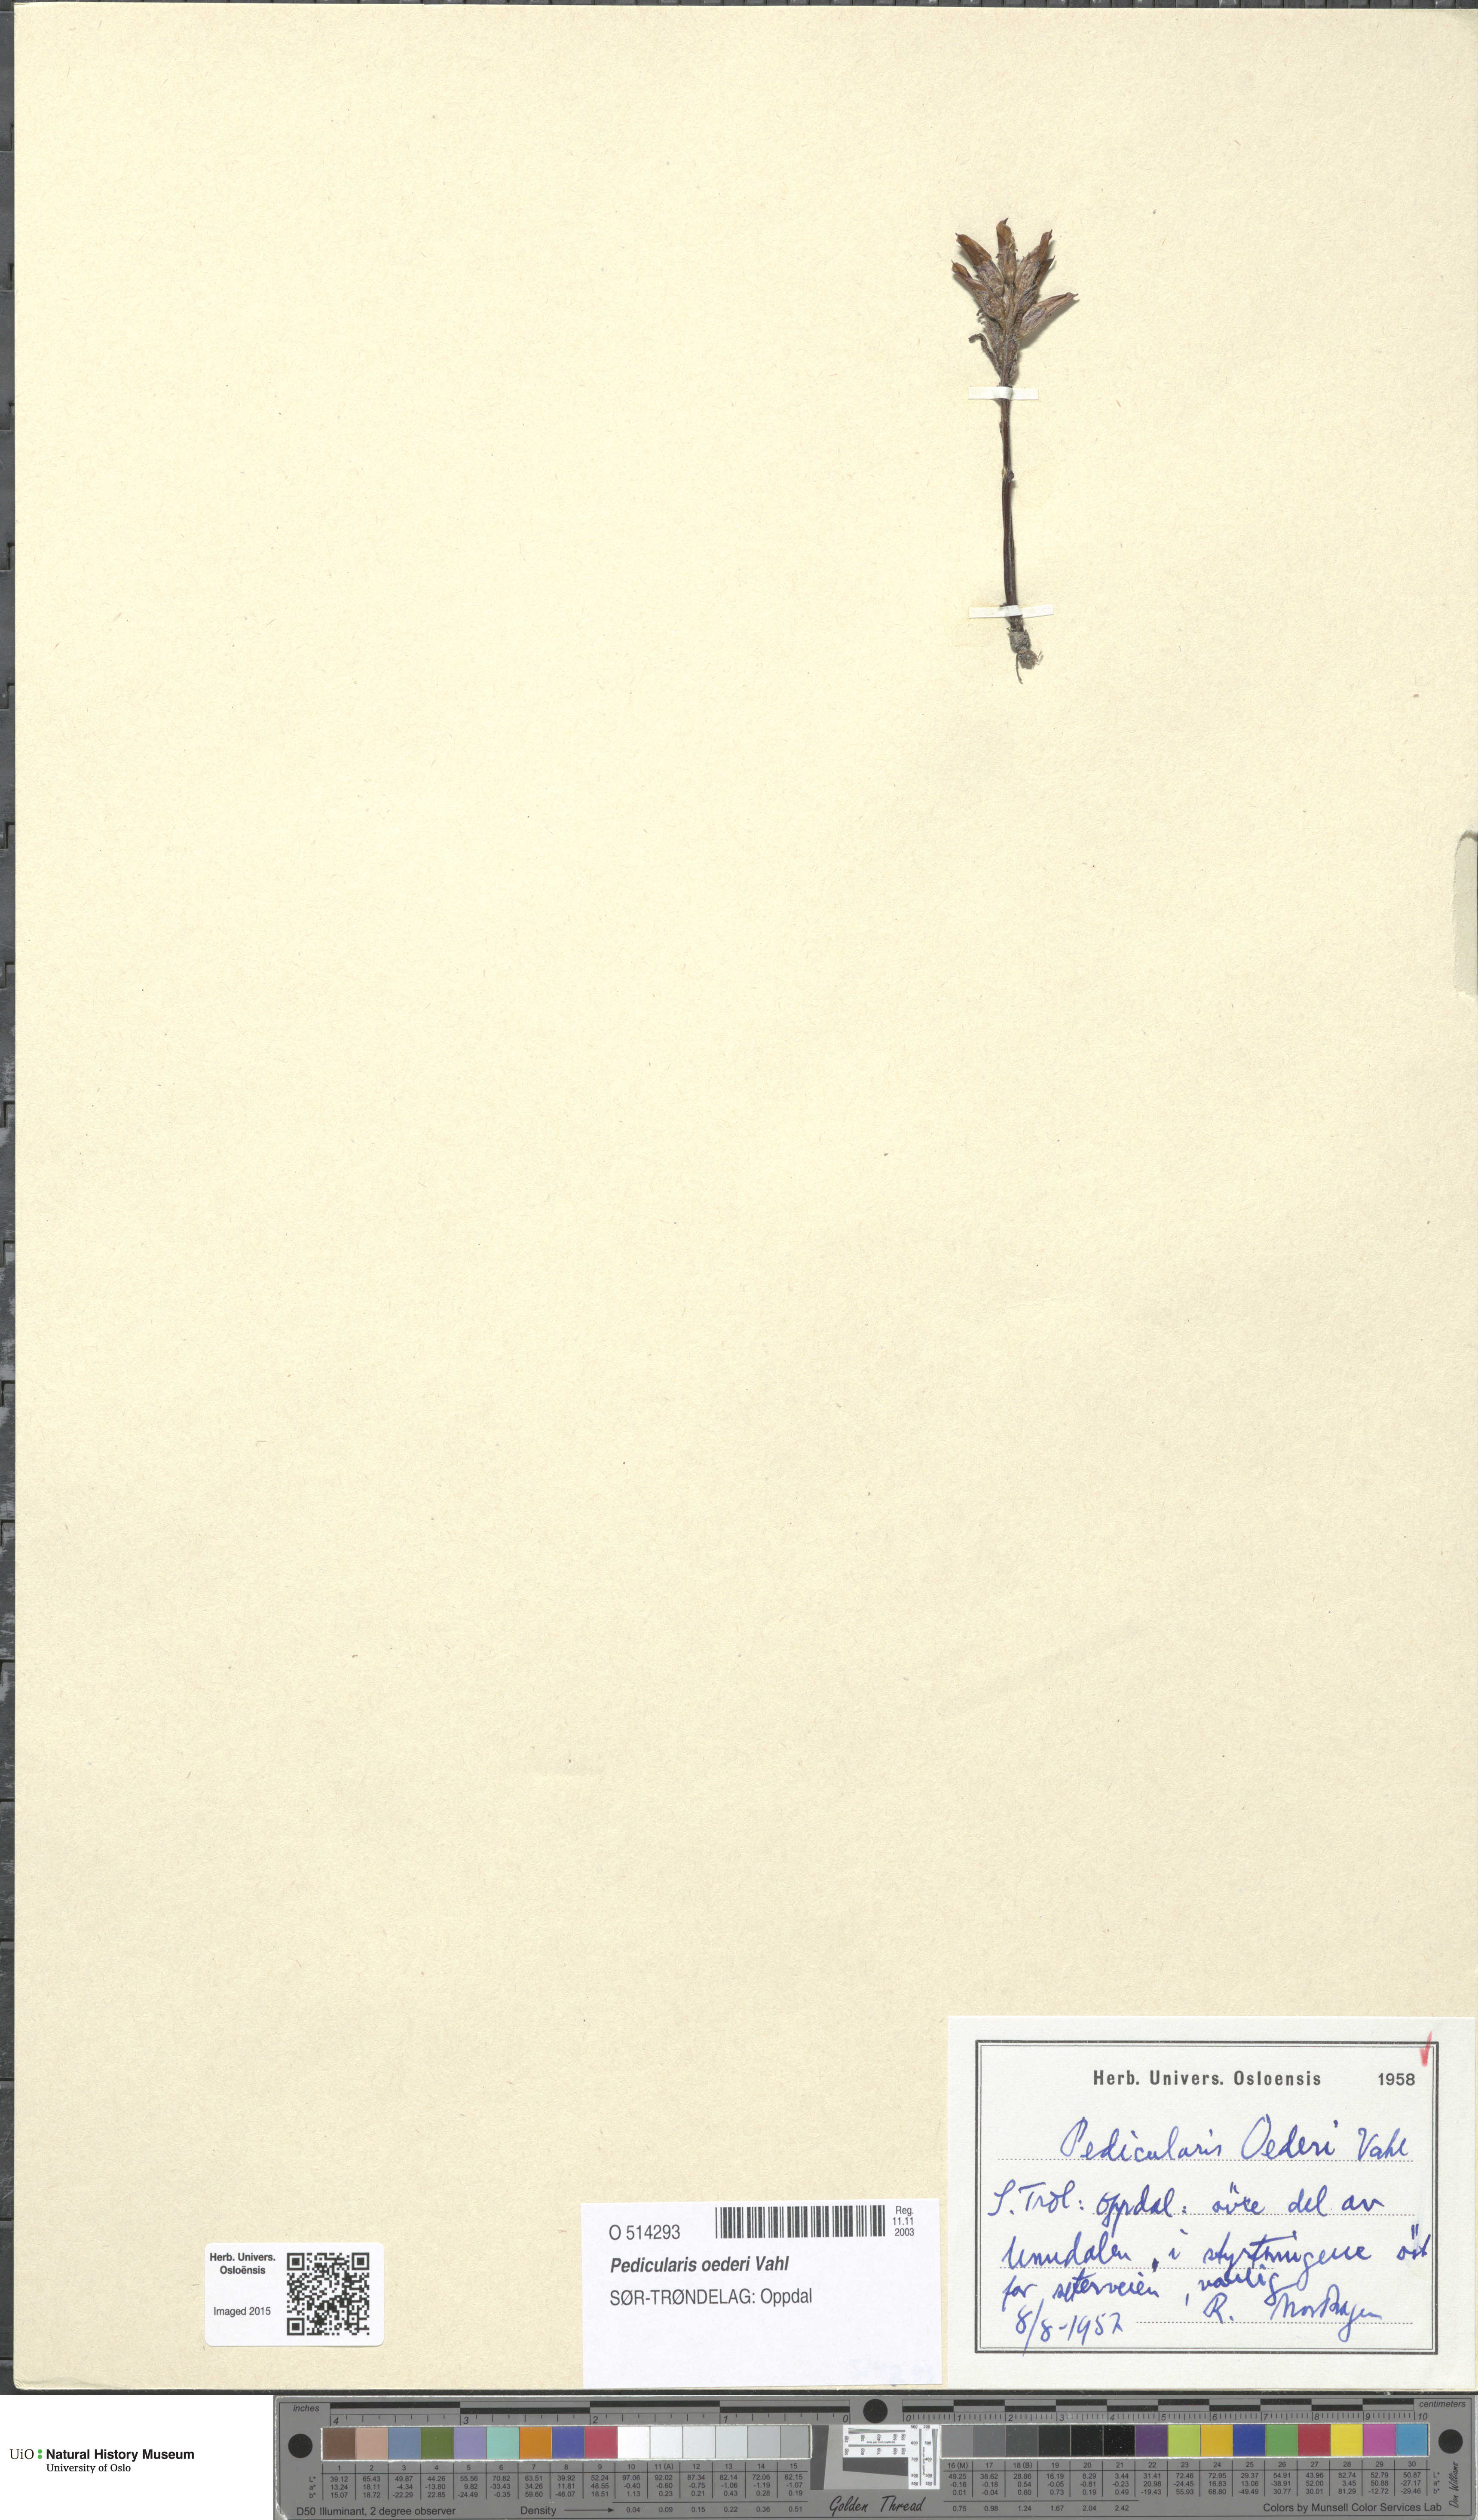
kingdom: Plantae
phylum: Tracheophyta
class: Magnoliopsida
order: Lamiales
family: Orobanchaceae
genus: Pedicularis
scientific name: Pedicularis oederi
